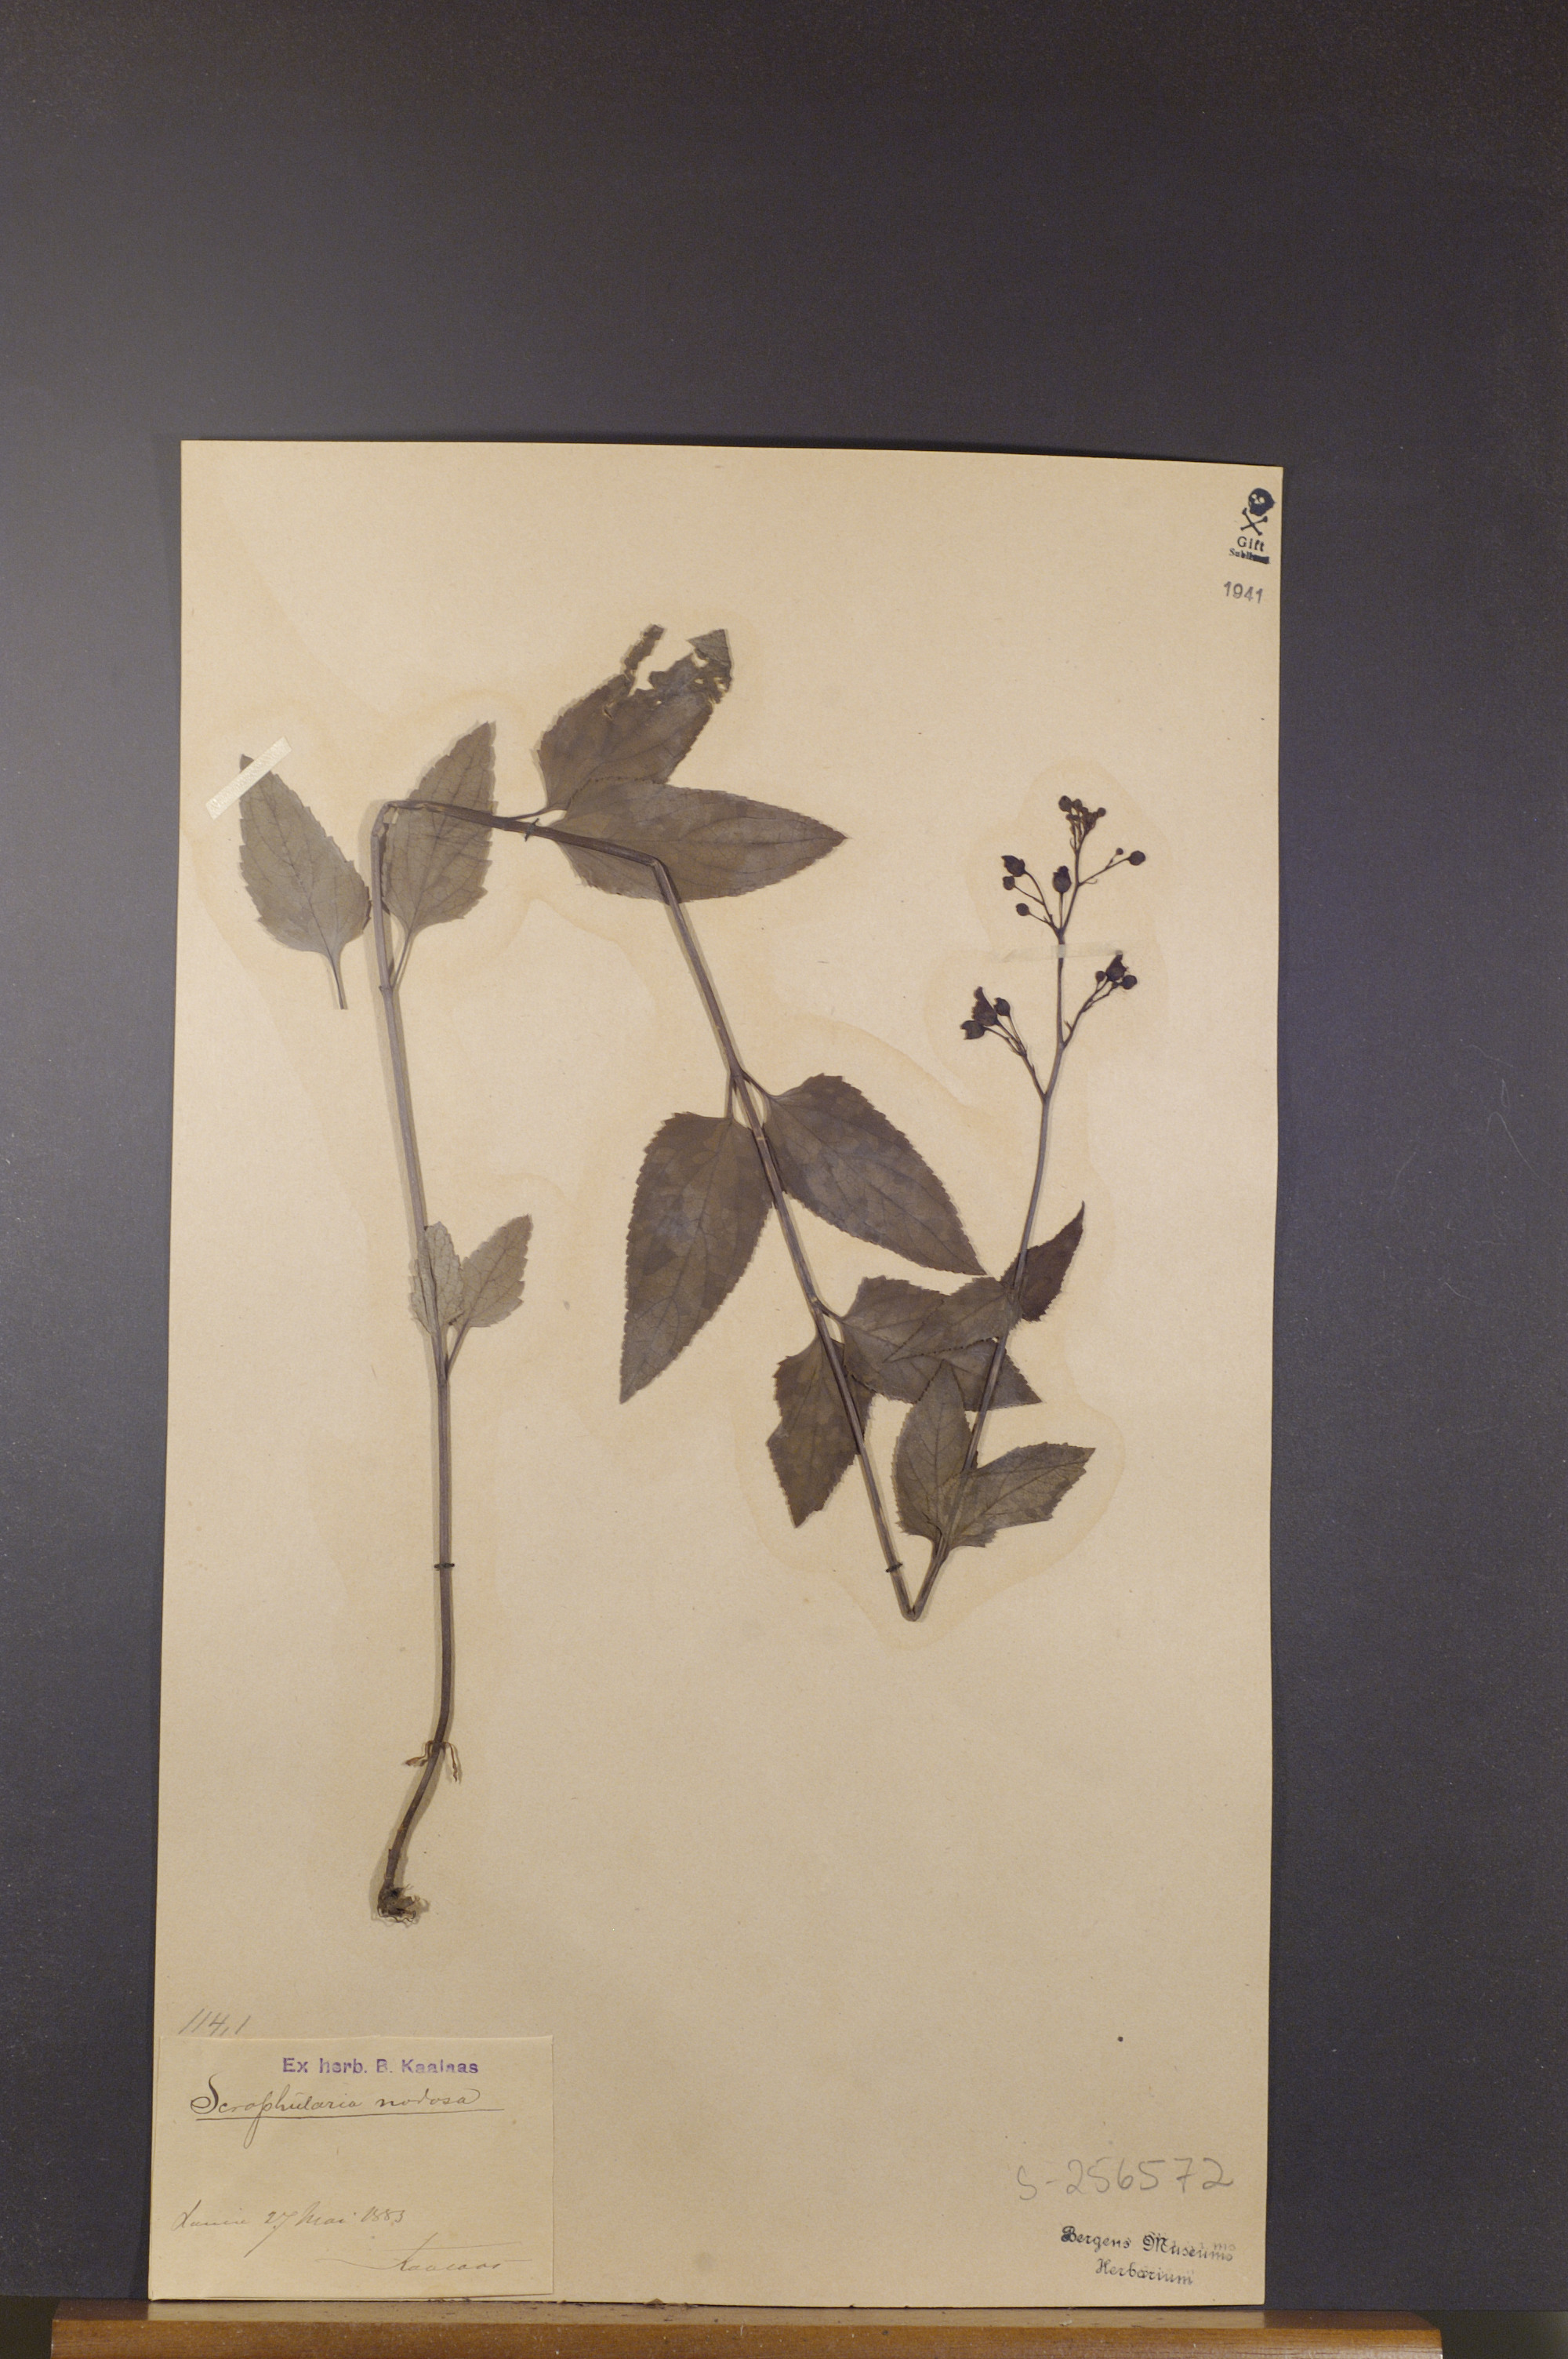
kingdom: Plantae
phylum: Tracheophyta
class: Magnoliopsida
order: Lamiales
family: Scrophulariaceae
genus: Scrophularia
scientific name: Scrophularia nodosa
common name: Common figwort
